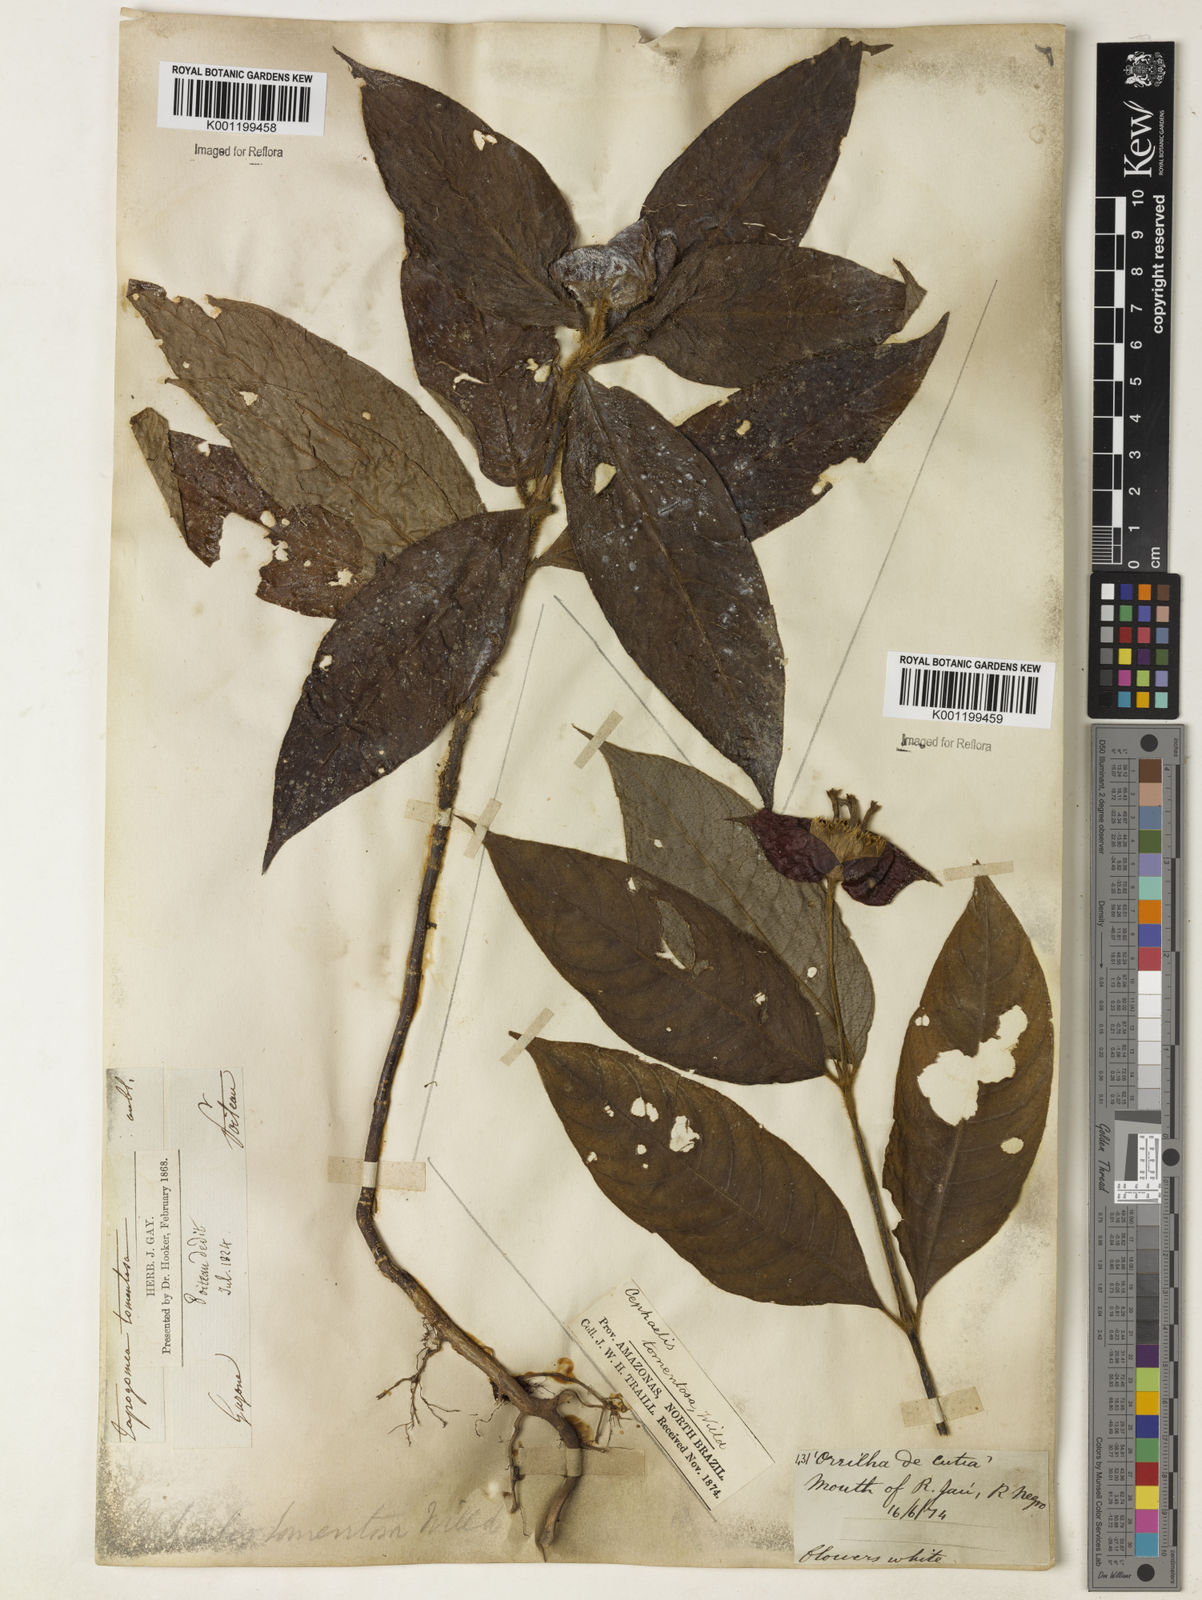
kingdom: Plantae
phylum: Tracheophyta
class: Magnoliopsida
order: Gentianales
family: Rubiaceae
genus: Psychotria
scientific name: Psychotria
